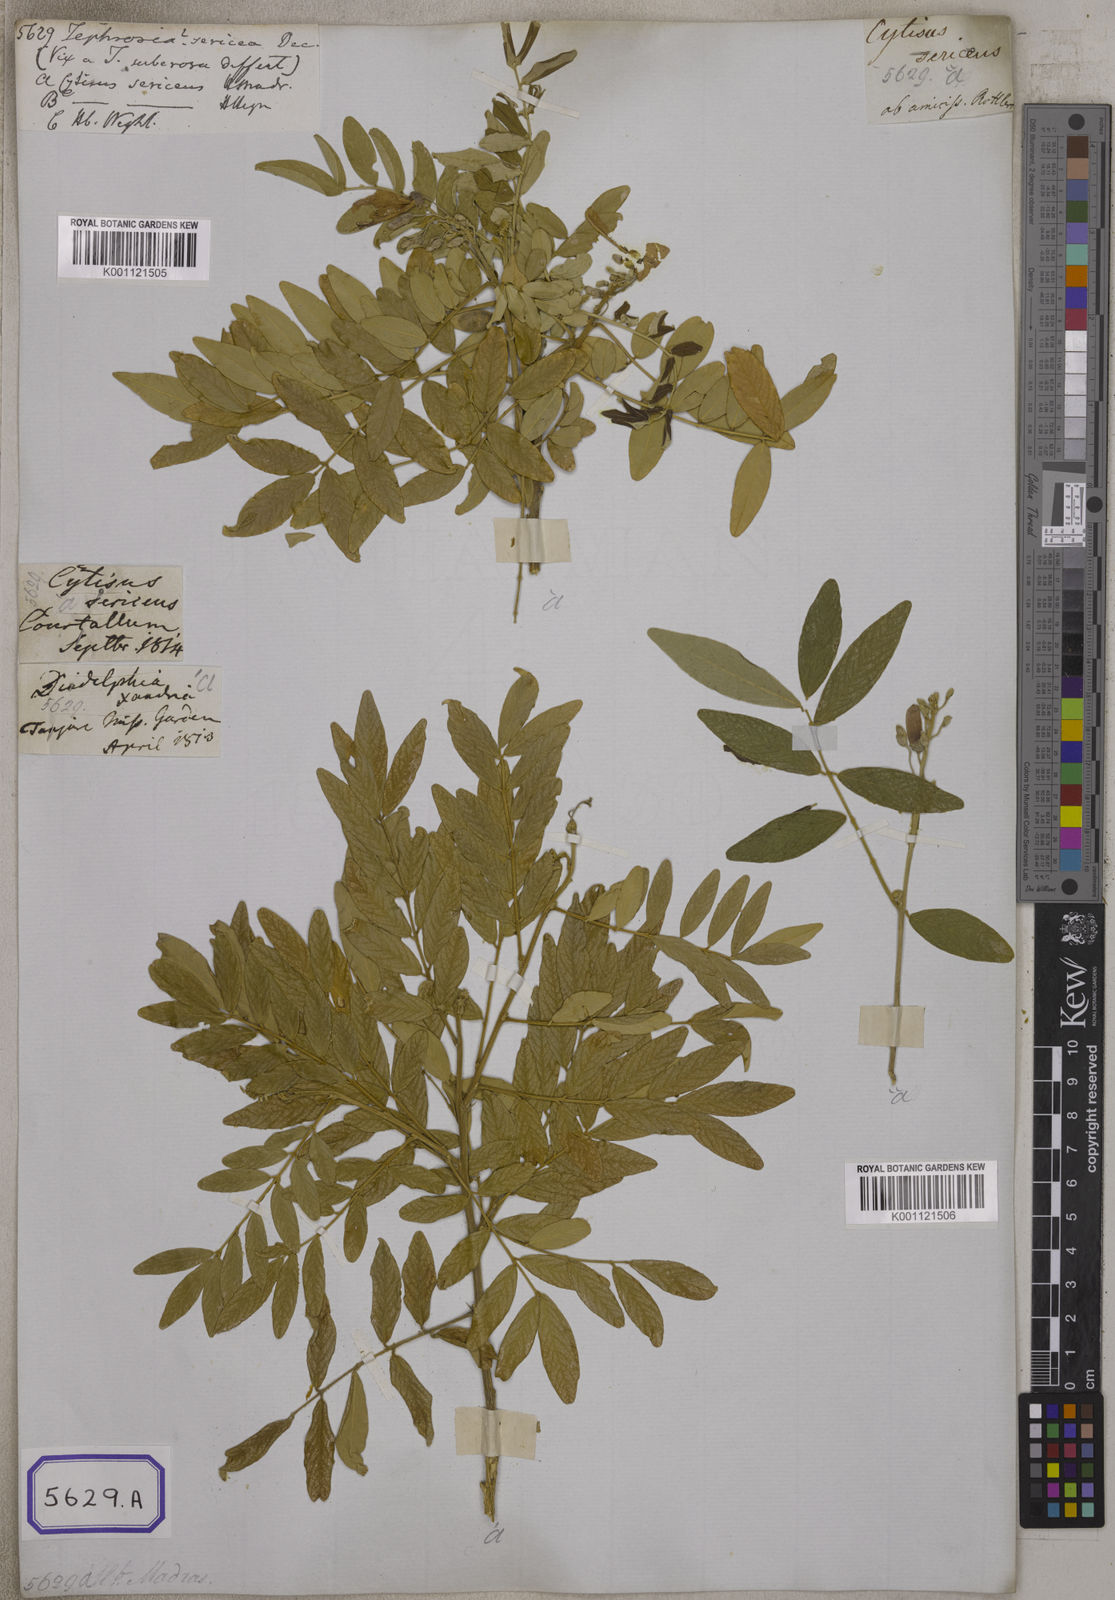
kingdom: Plantae
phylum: Tracheophyta
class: Magnoliopsida
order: Fabales
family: Fabaceae
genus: Mundulea
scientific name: Mundulea sericea
